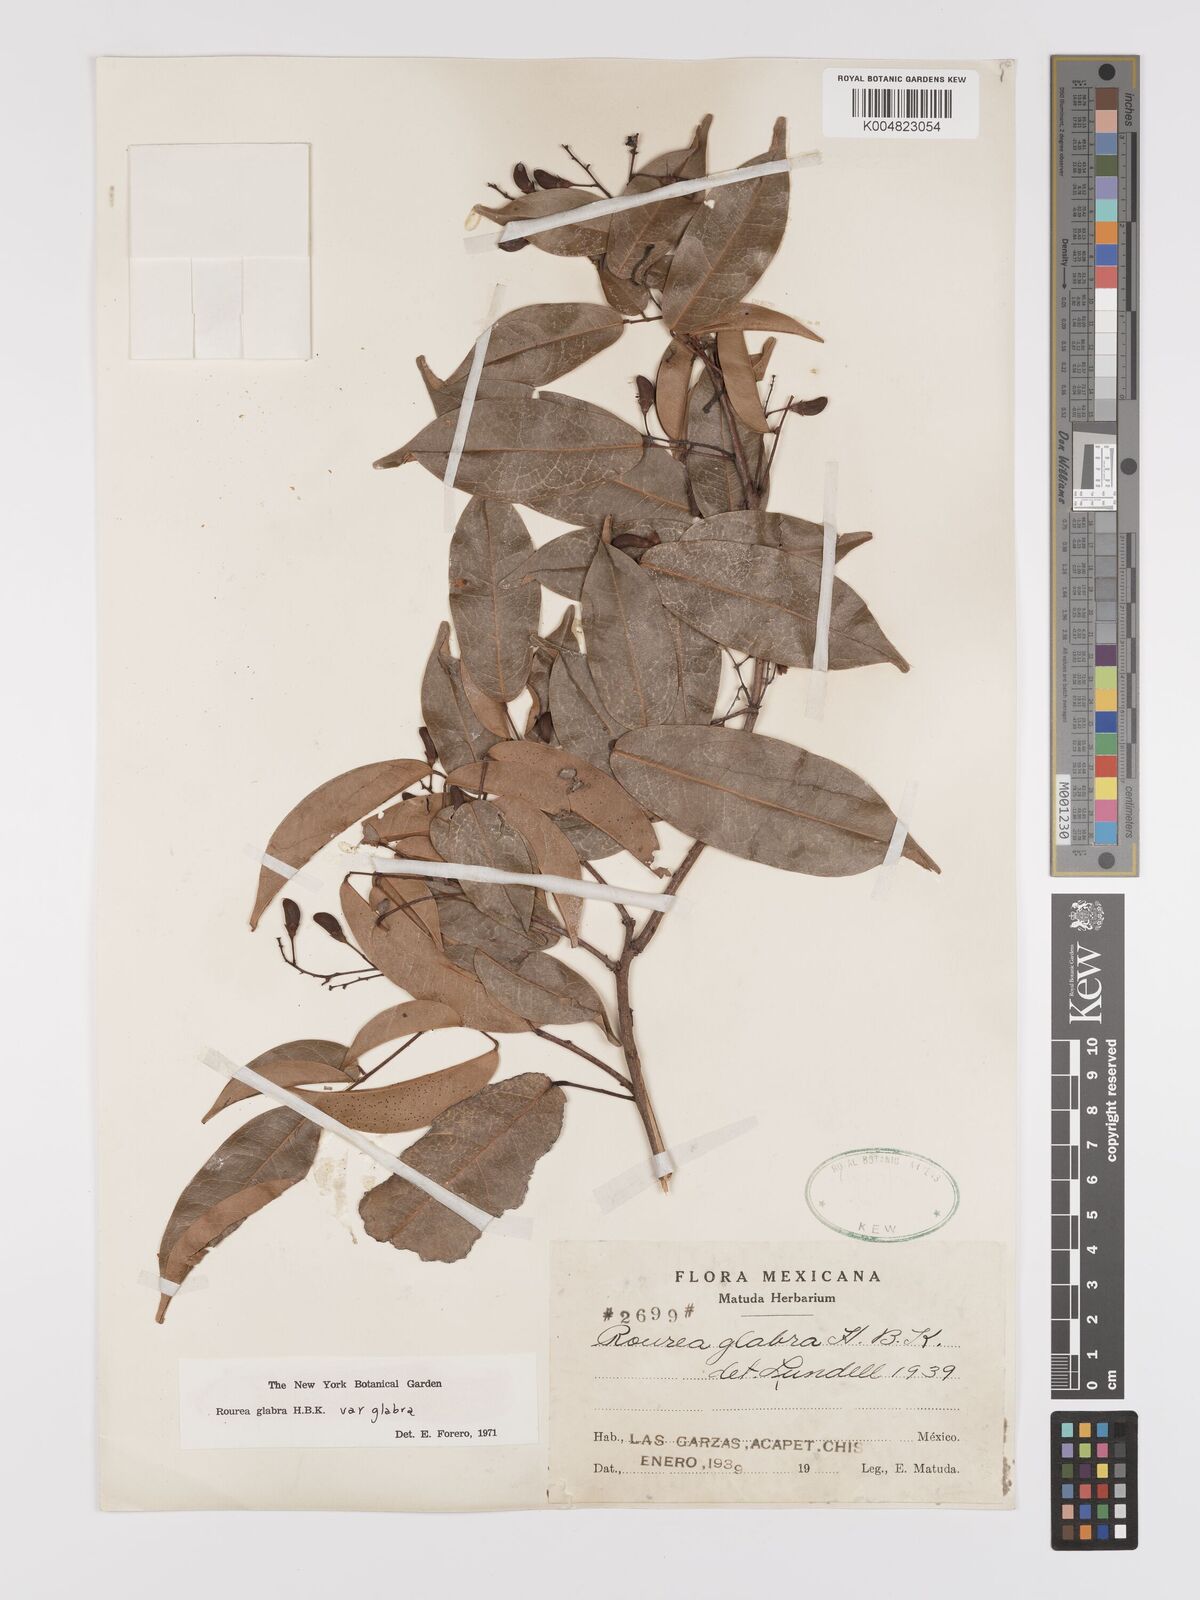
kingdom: Plantae
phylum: Tracheophyta
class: Magnoliopsida
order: Oxalidales
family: Connaraceae
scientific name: Connaraceae
